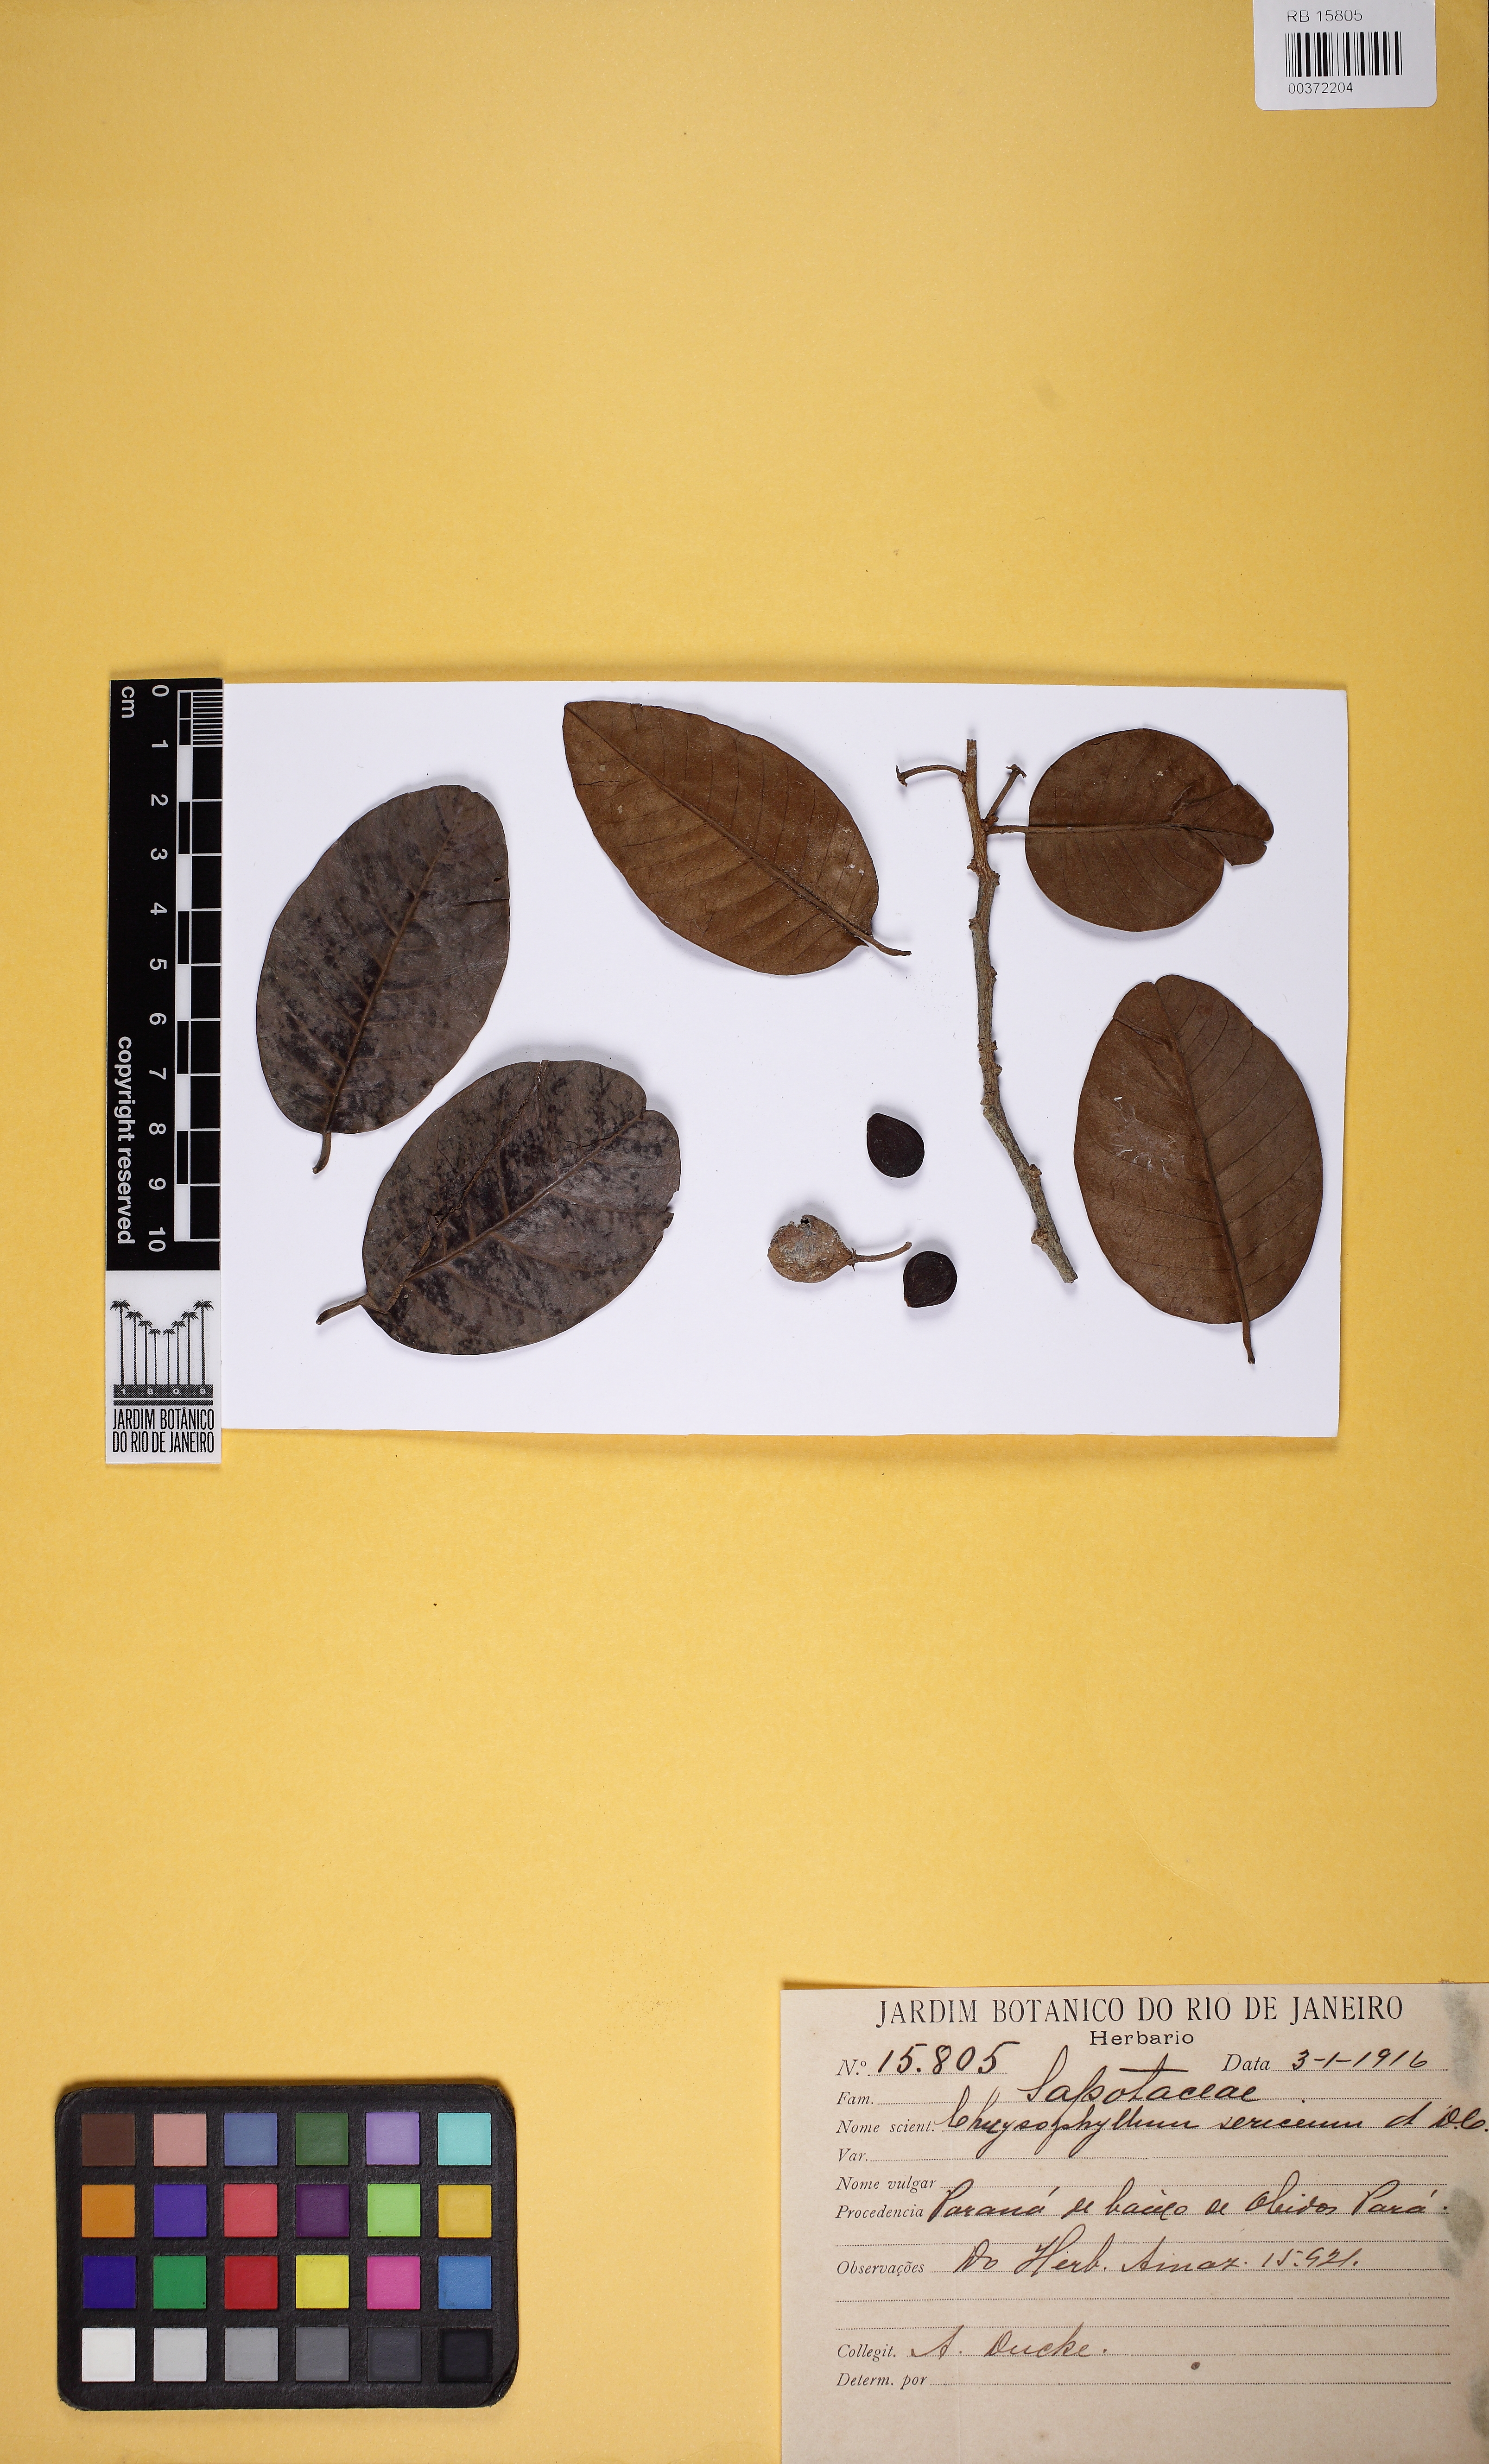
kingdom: Plantae
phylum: Tracheophyta
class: Magnoliopsida
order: Ericales
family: Sapotaceae
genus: Chrysophyllum
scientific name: Chrysophyllum argenteum
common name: Smooth star apple
